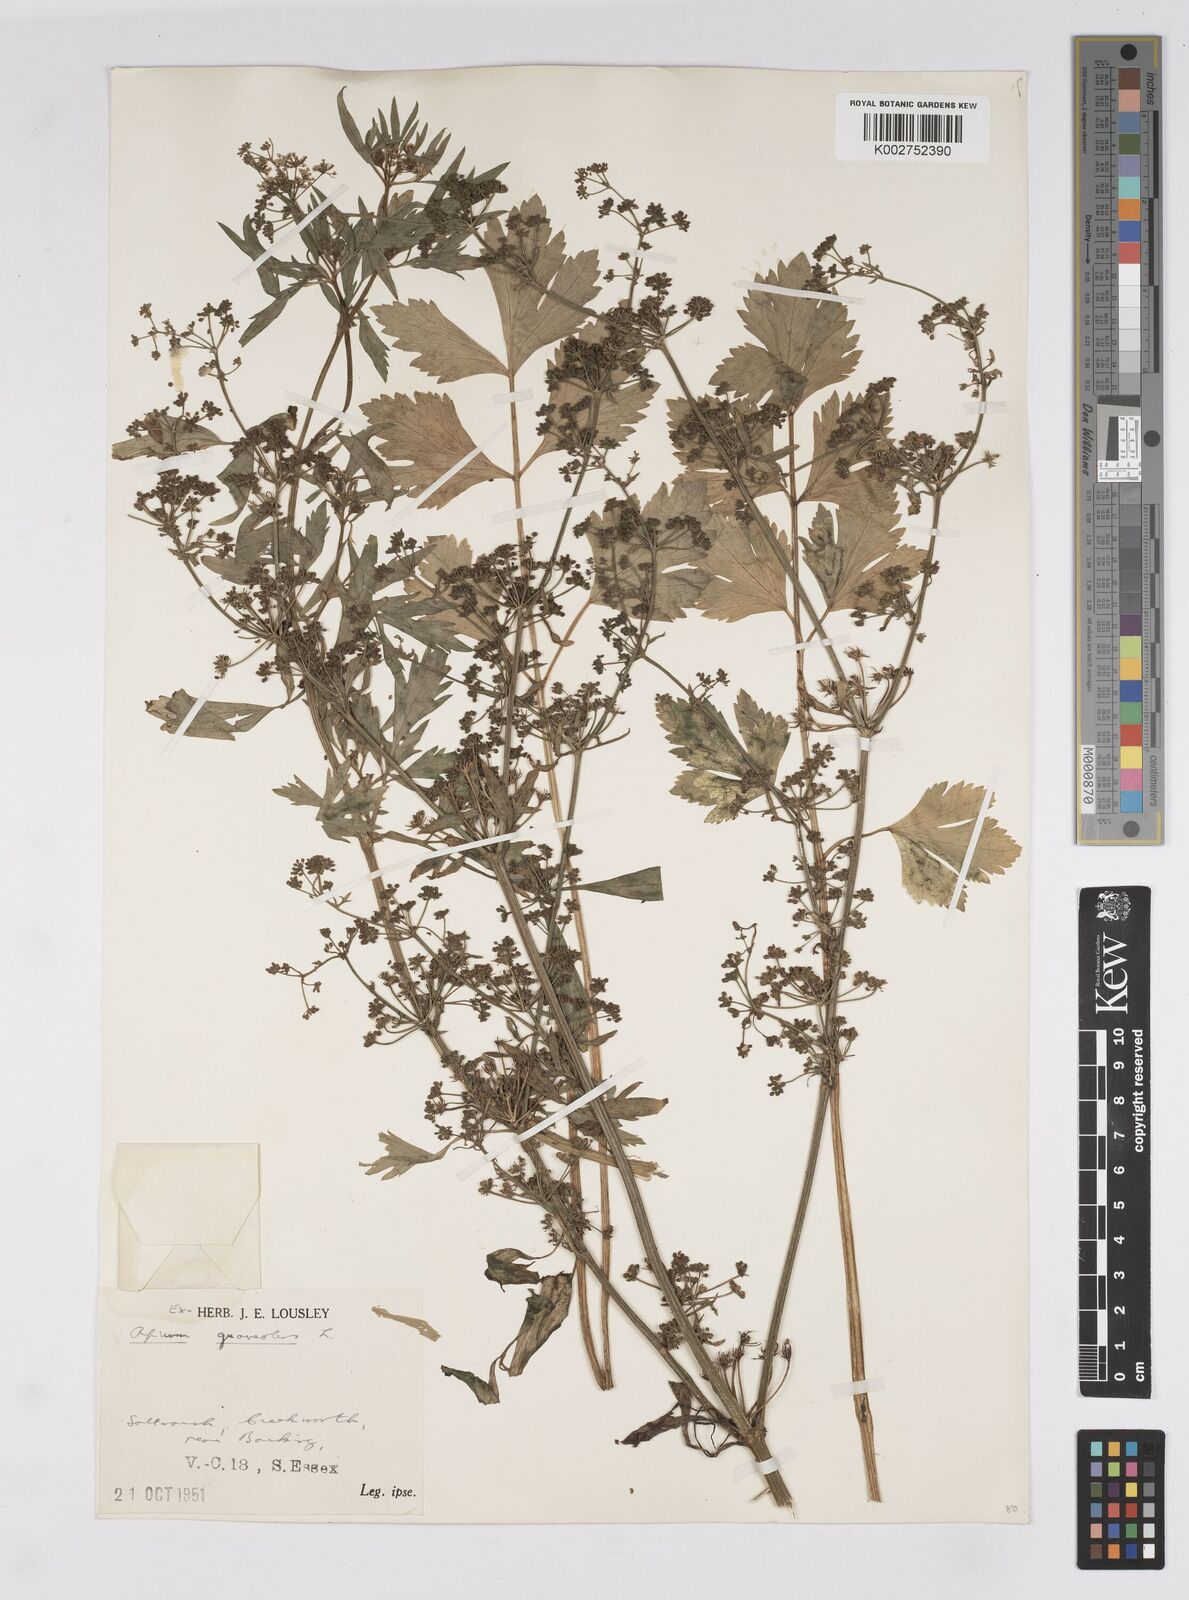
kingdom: Plantae
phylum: Tracheophyta
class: Magnoliopsida
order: Apiales
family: Apiaceae
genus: Apium
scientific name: Apium graveolens
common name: Wild celery
